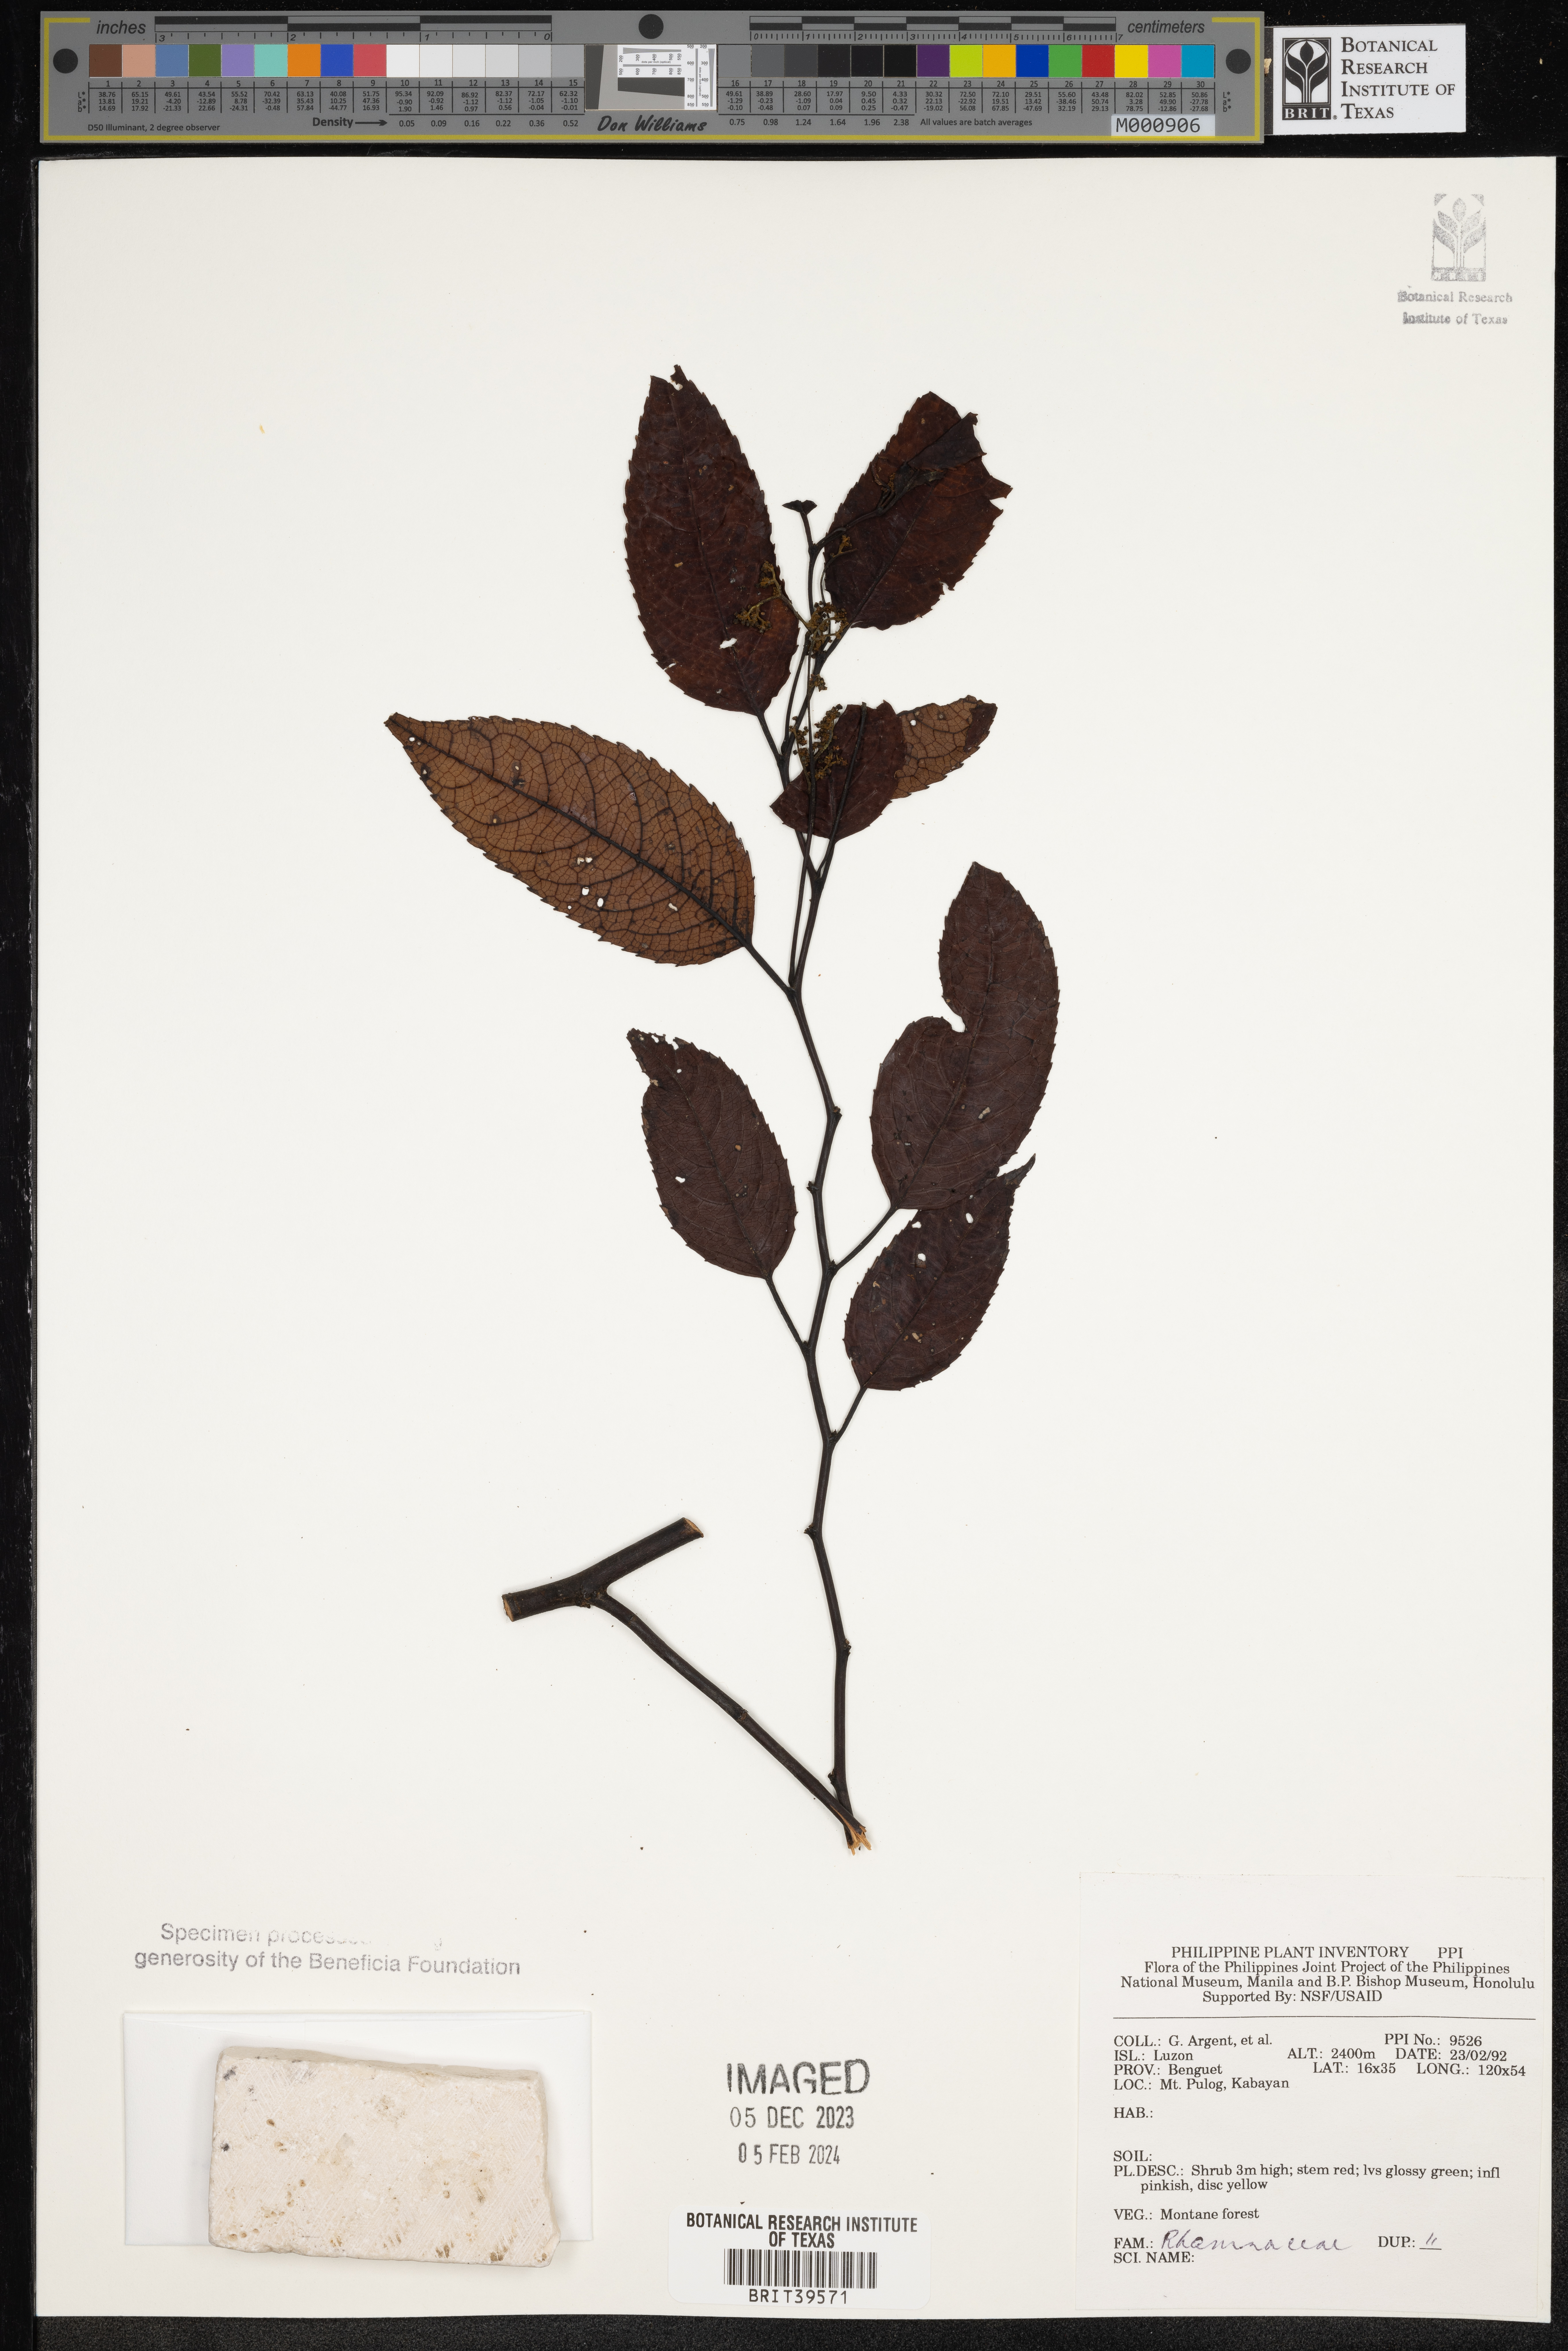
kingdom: Plantae
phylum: Tracheophyta
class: Magnoliopsida
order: Rosales
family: Rhamnaceae
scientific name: Rhamnaceae
